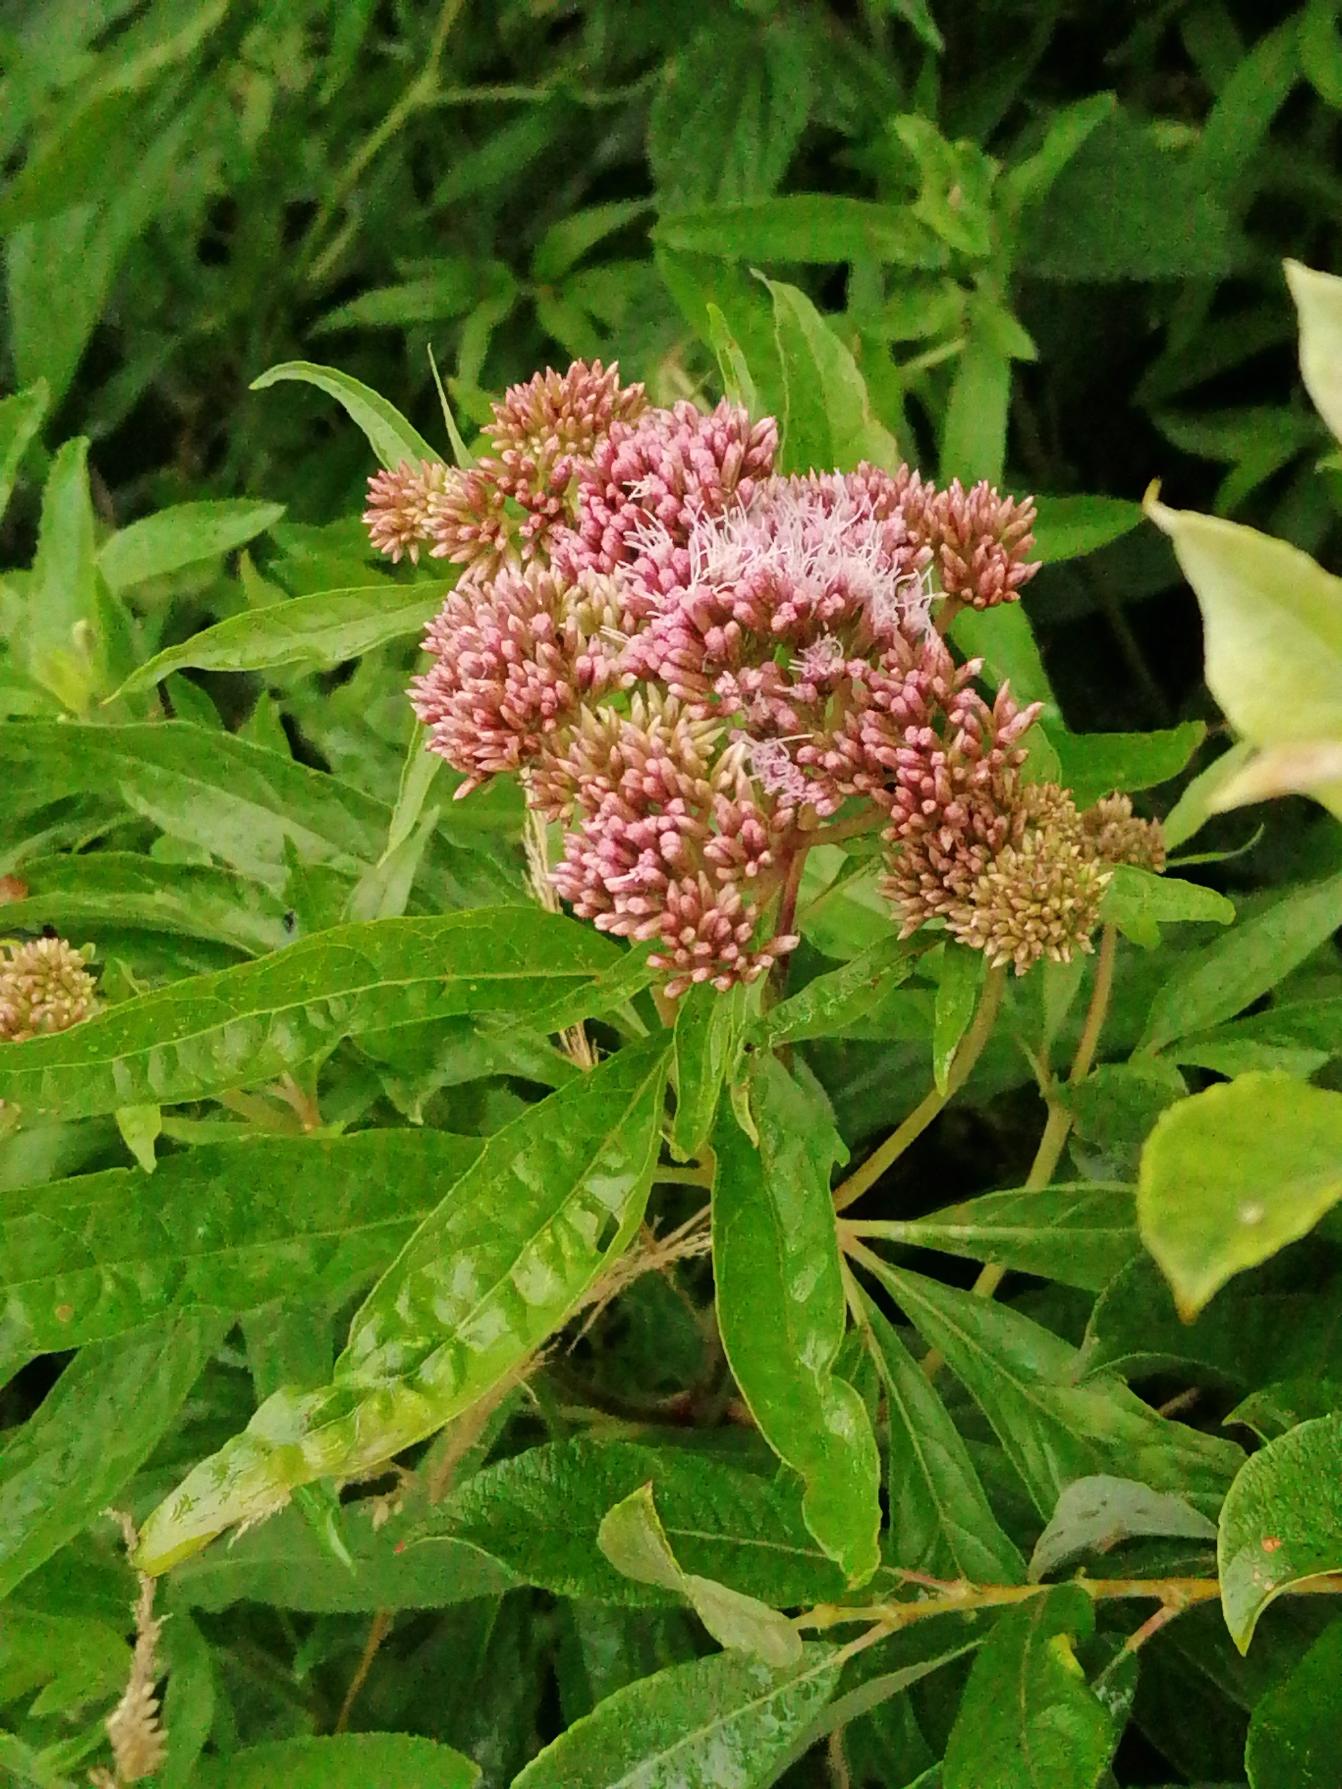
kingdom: Plantae
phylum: Tracheophyta
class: Magnoliopsida
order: Asterales
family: Asteraceae
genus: Eupatorium
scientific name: Eupatorium cannabinum
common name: Hjortetrøst
